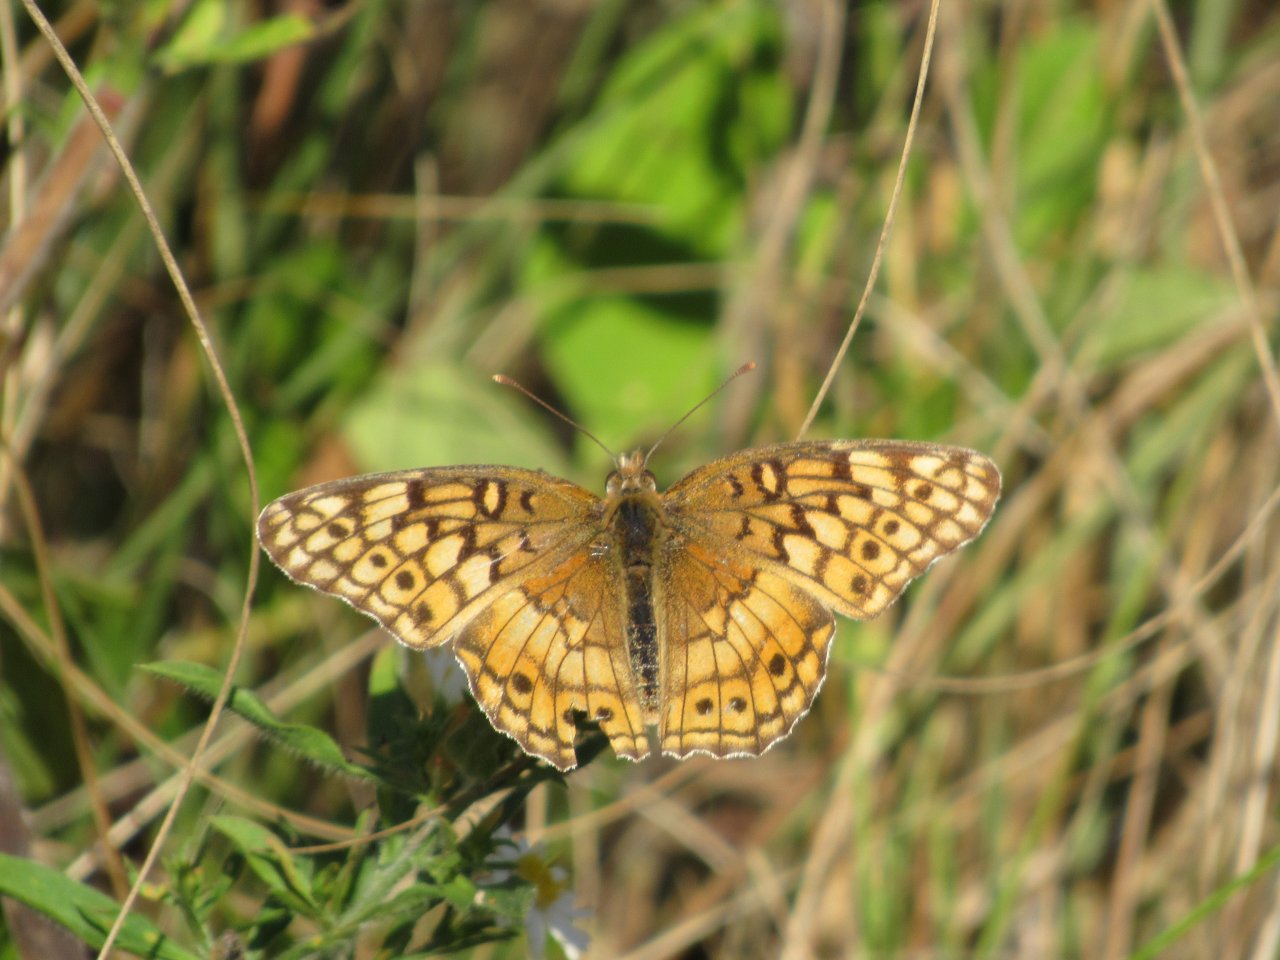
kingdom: Animalia
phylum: Arthropoda
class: Insecta
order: Lepidoptera
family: Nymphalidae
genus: Euptoieta
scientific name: Euptoieta claudia
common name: Variegated Fritillary
